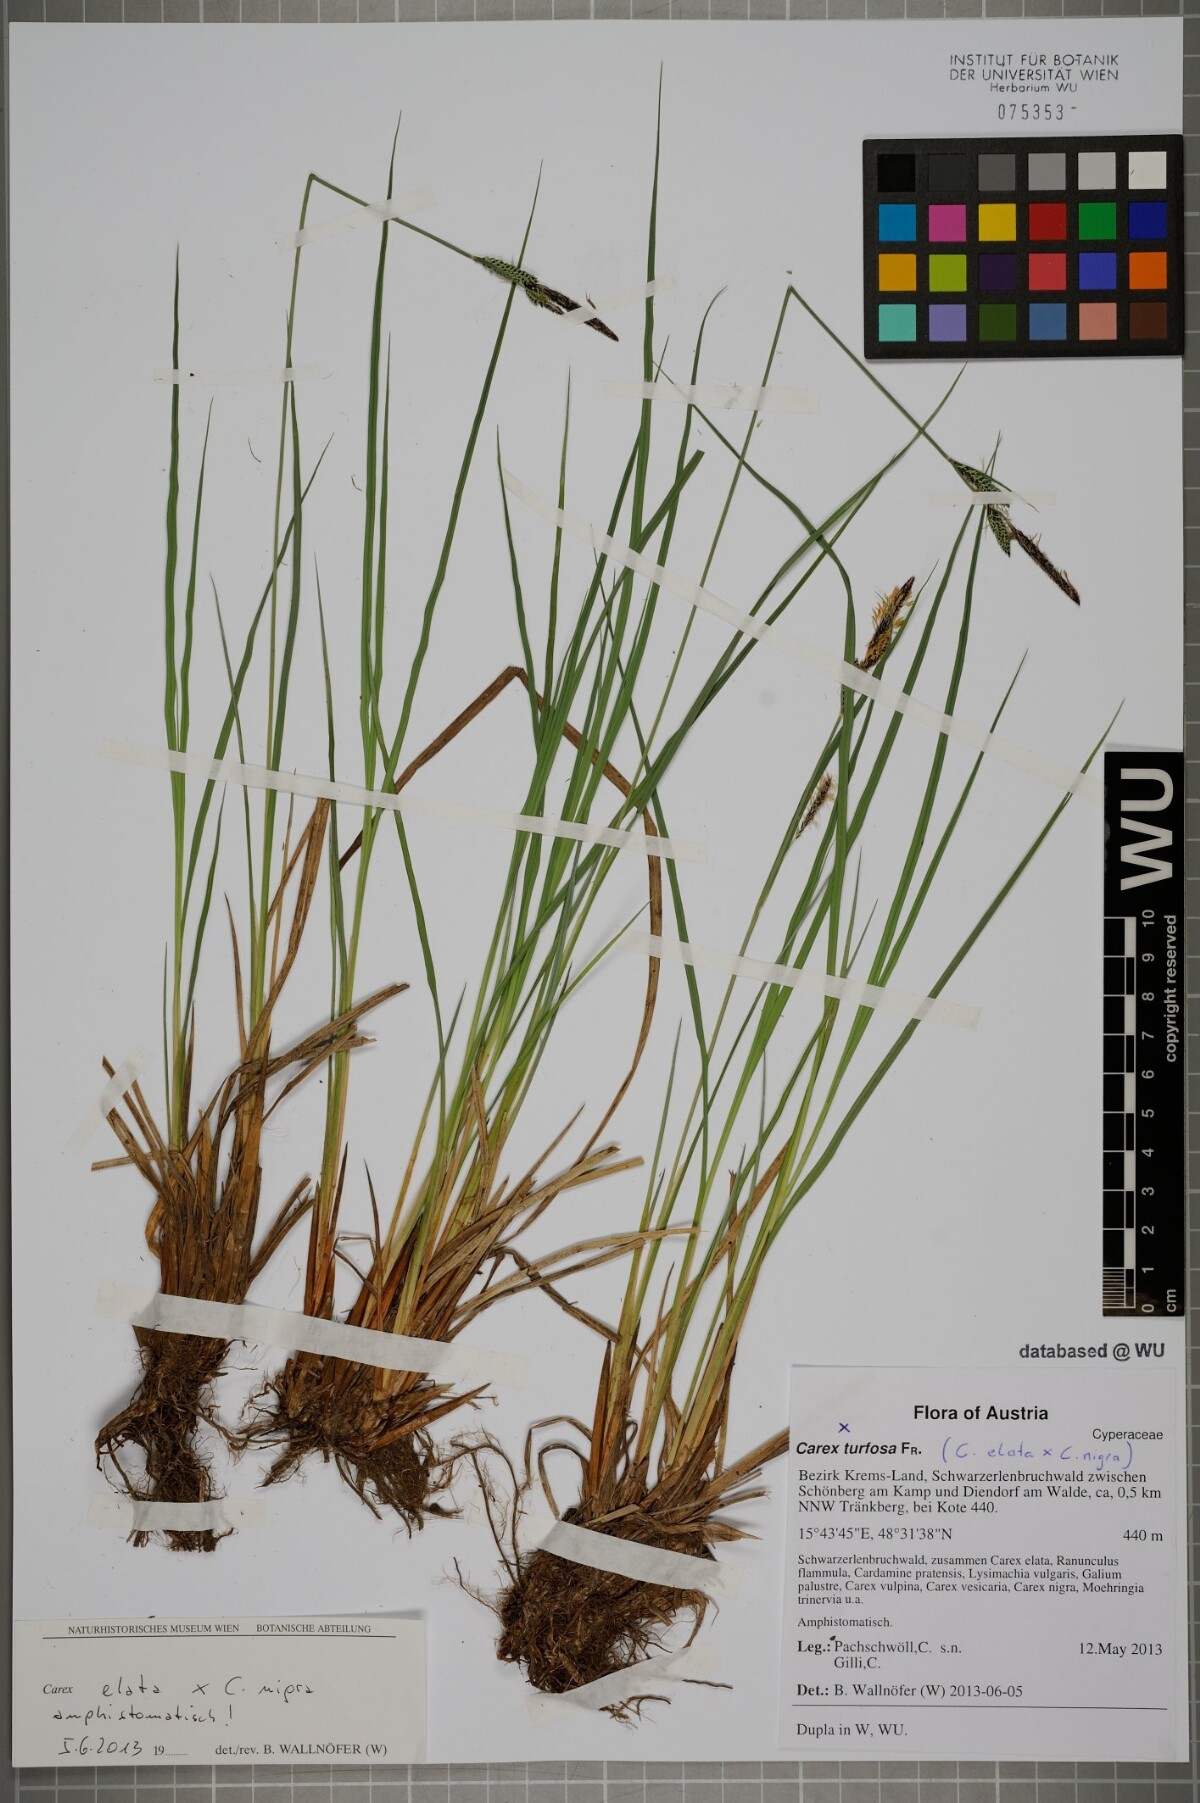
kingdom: Plantae
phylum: Tracheophyta
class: Liliopsida
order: Poales
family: Cyperaceae
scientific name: Cyperaceae
